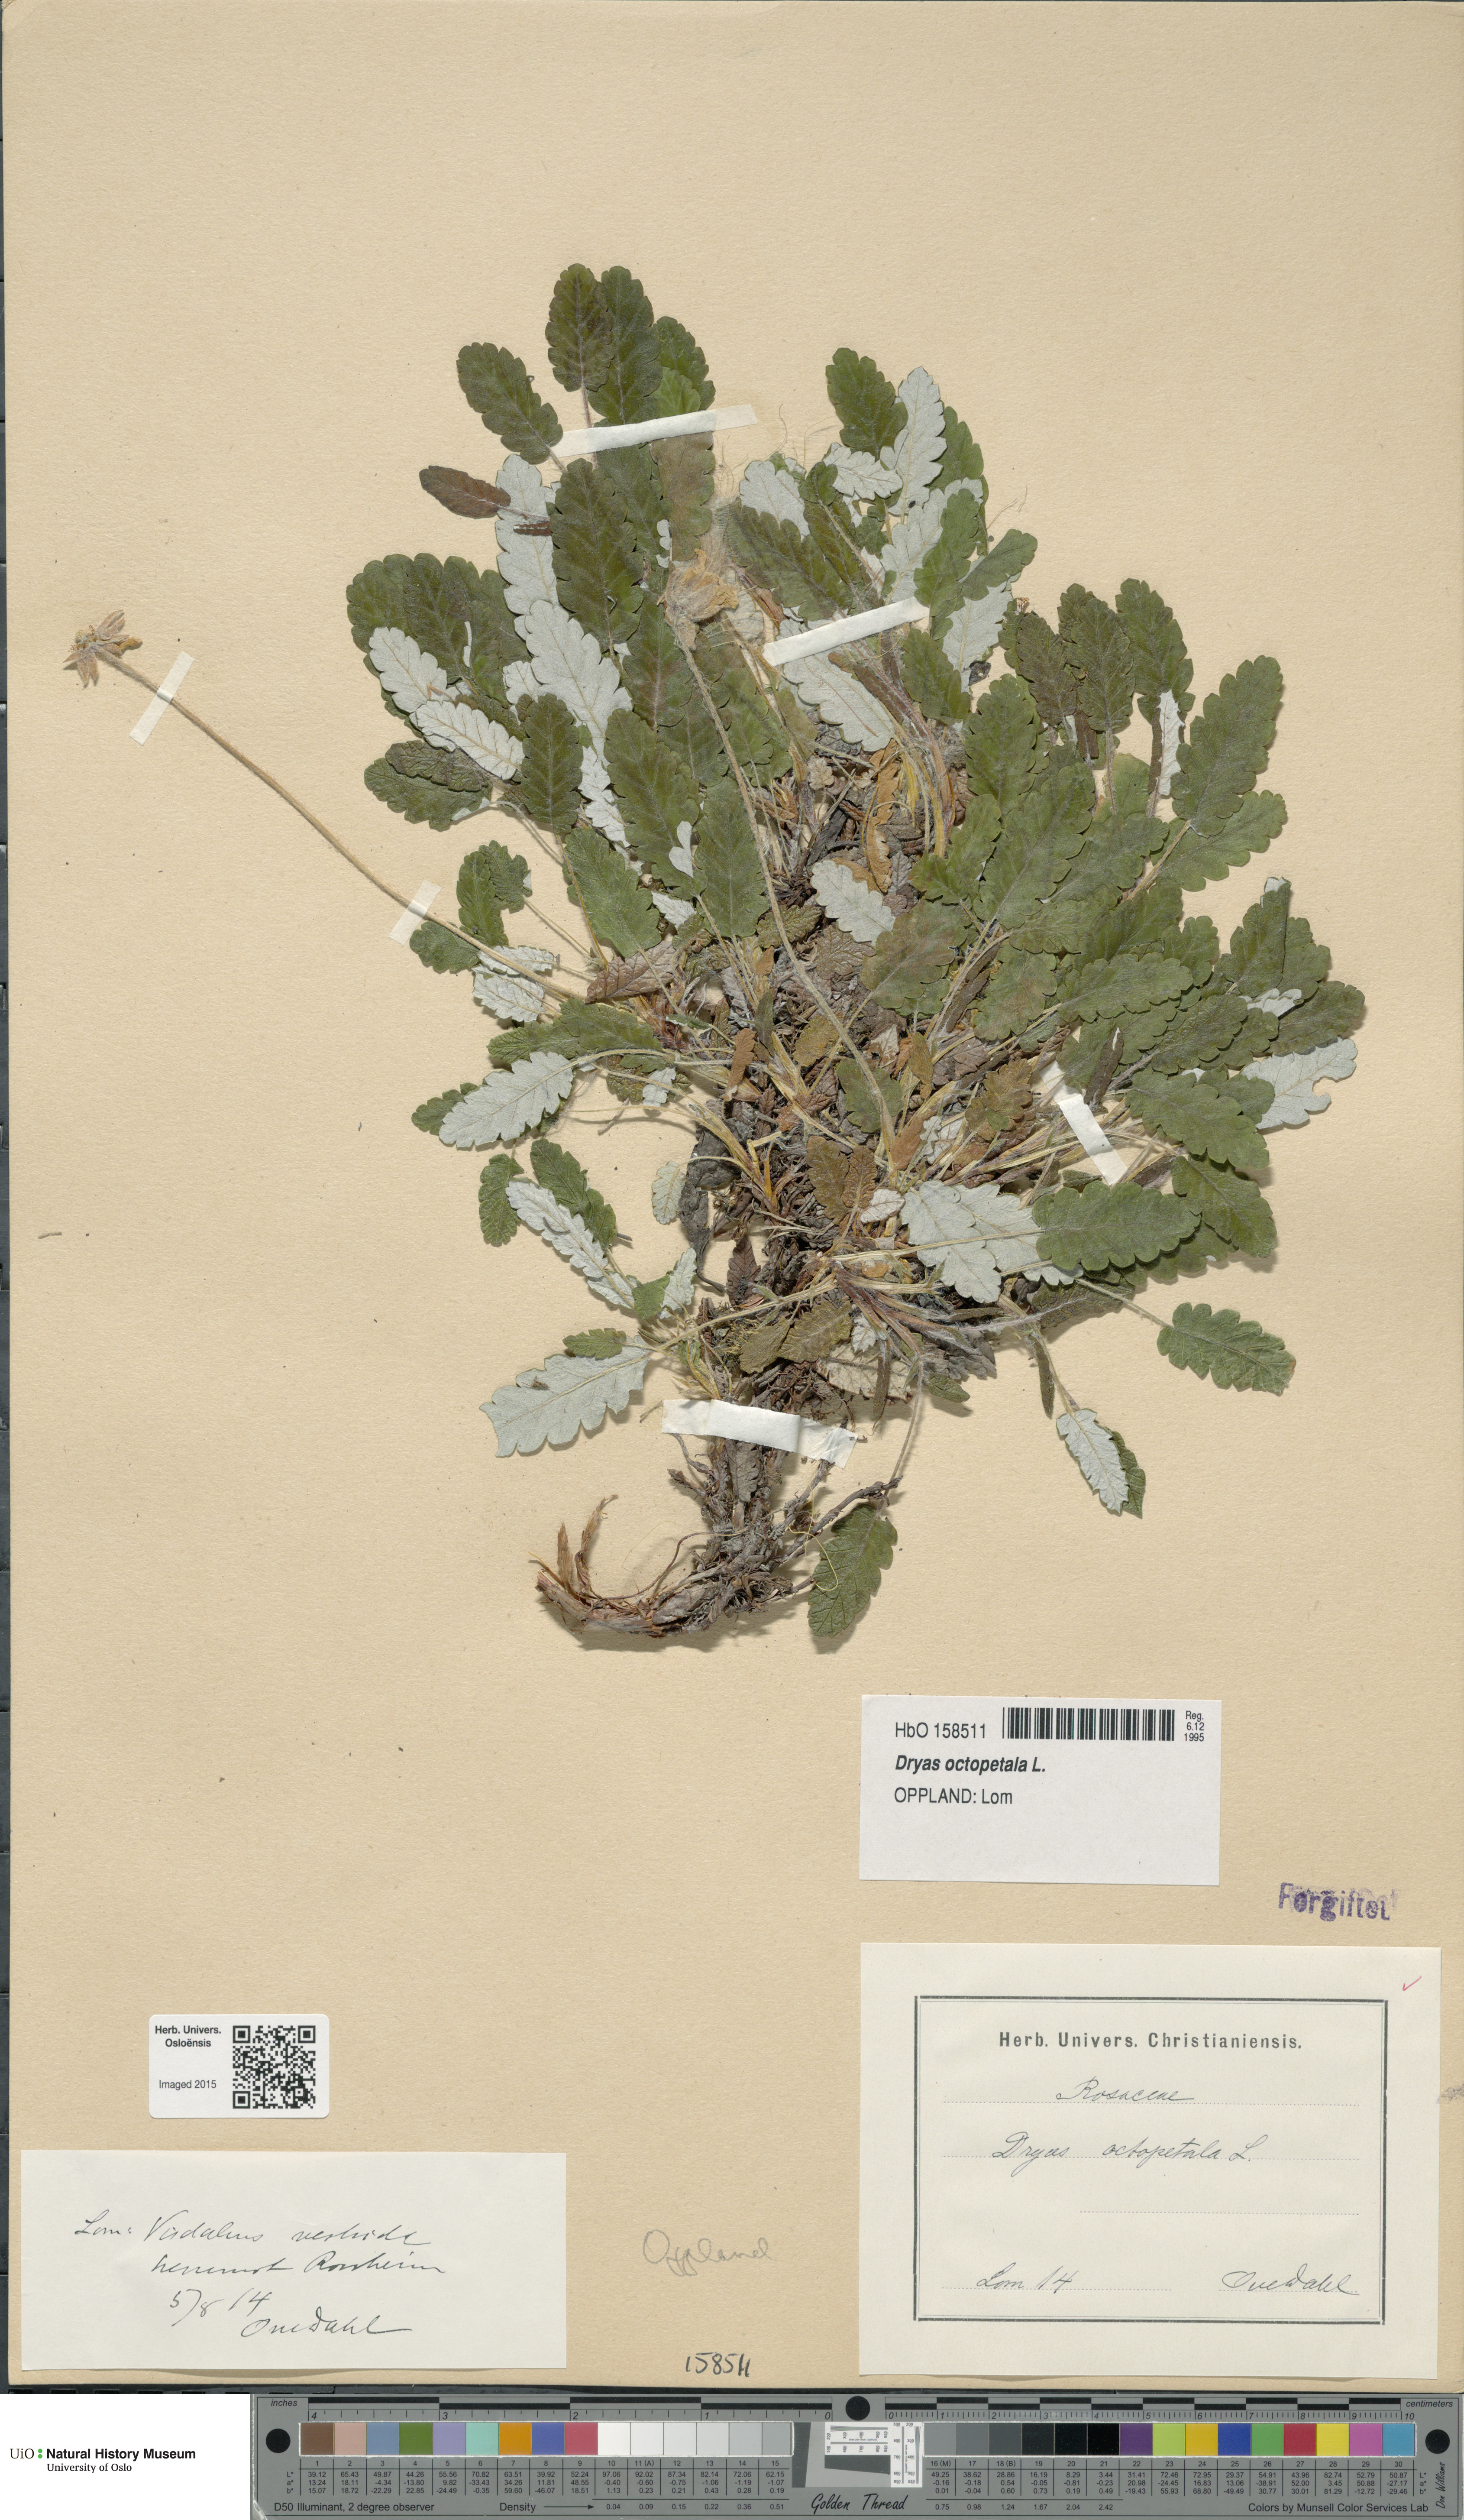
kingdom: Plantae
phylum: Tracheophyta
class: Magnoliopsida
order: Rosales
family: Rosaceae
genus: Dryas
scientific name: Dryas octopetala
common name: Eight-petal mountain-avens
